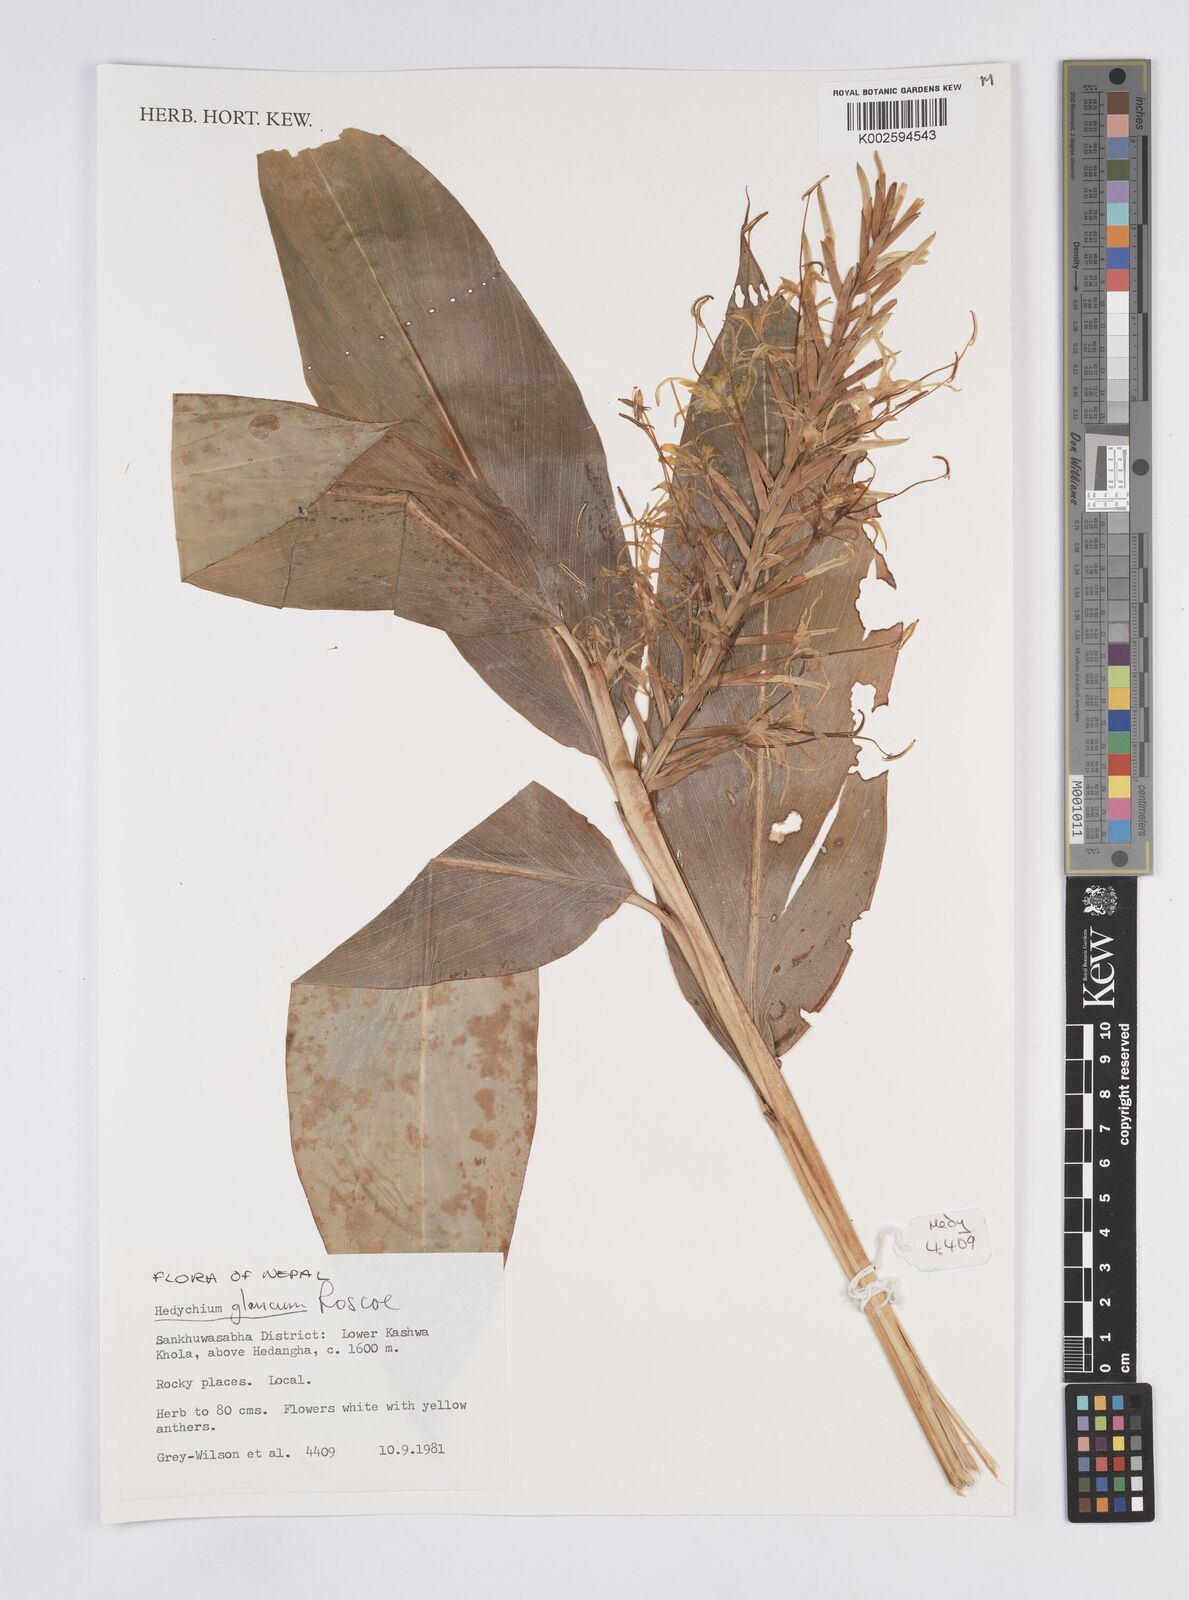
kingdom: Plantae
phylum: Tracheophyta
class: Liliopsida
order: Zingiberales
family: Zingiberaceae
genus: Hedychium
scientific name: Hedychium glaucum
